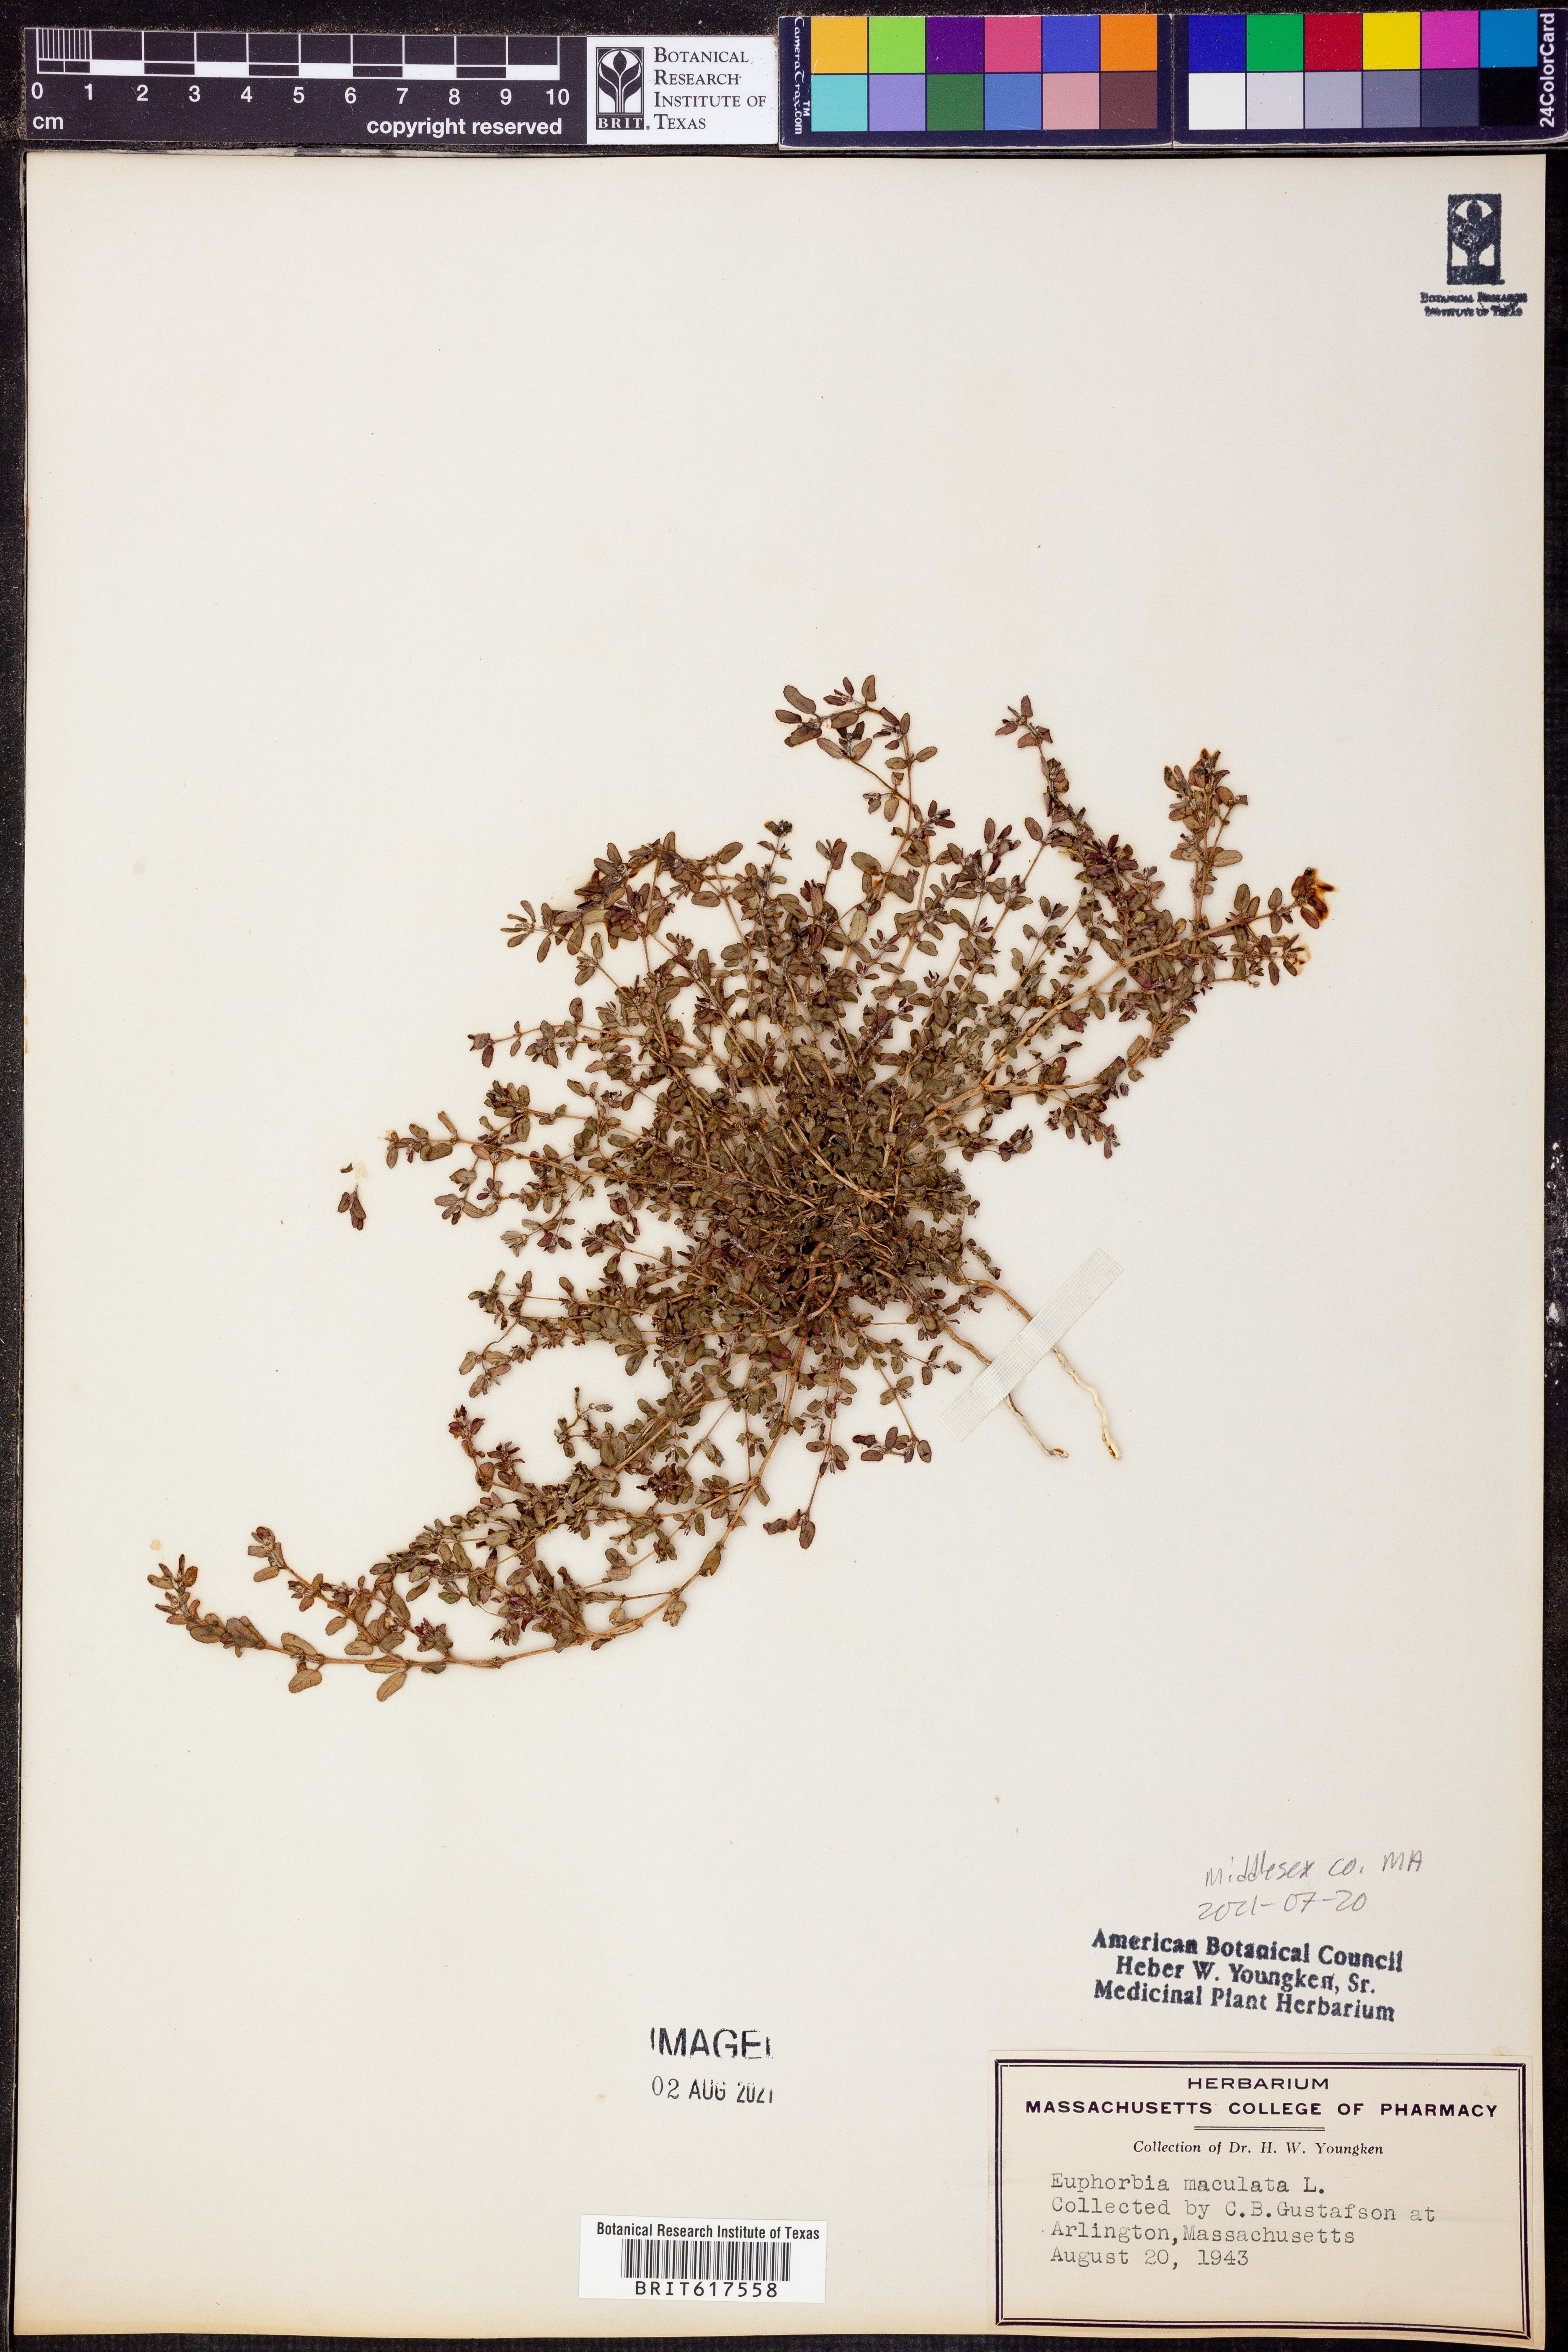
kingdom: Plantae
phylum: Tracheophyta
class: Magnoliopsida
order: Malpighiales
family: Euphorbiaceae
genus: Euphorbia
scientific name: Euphorbia maculata
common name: Spotted spurge
